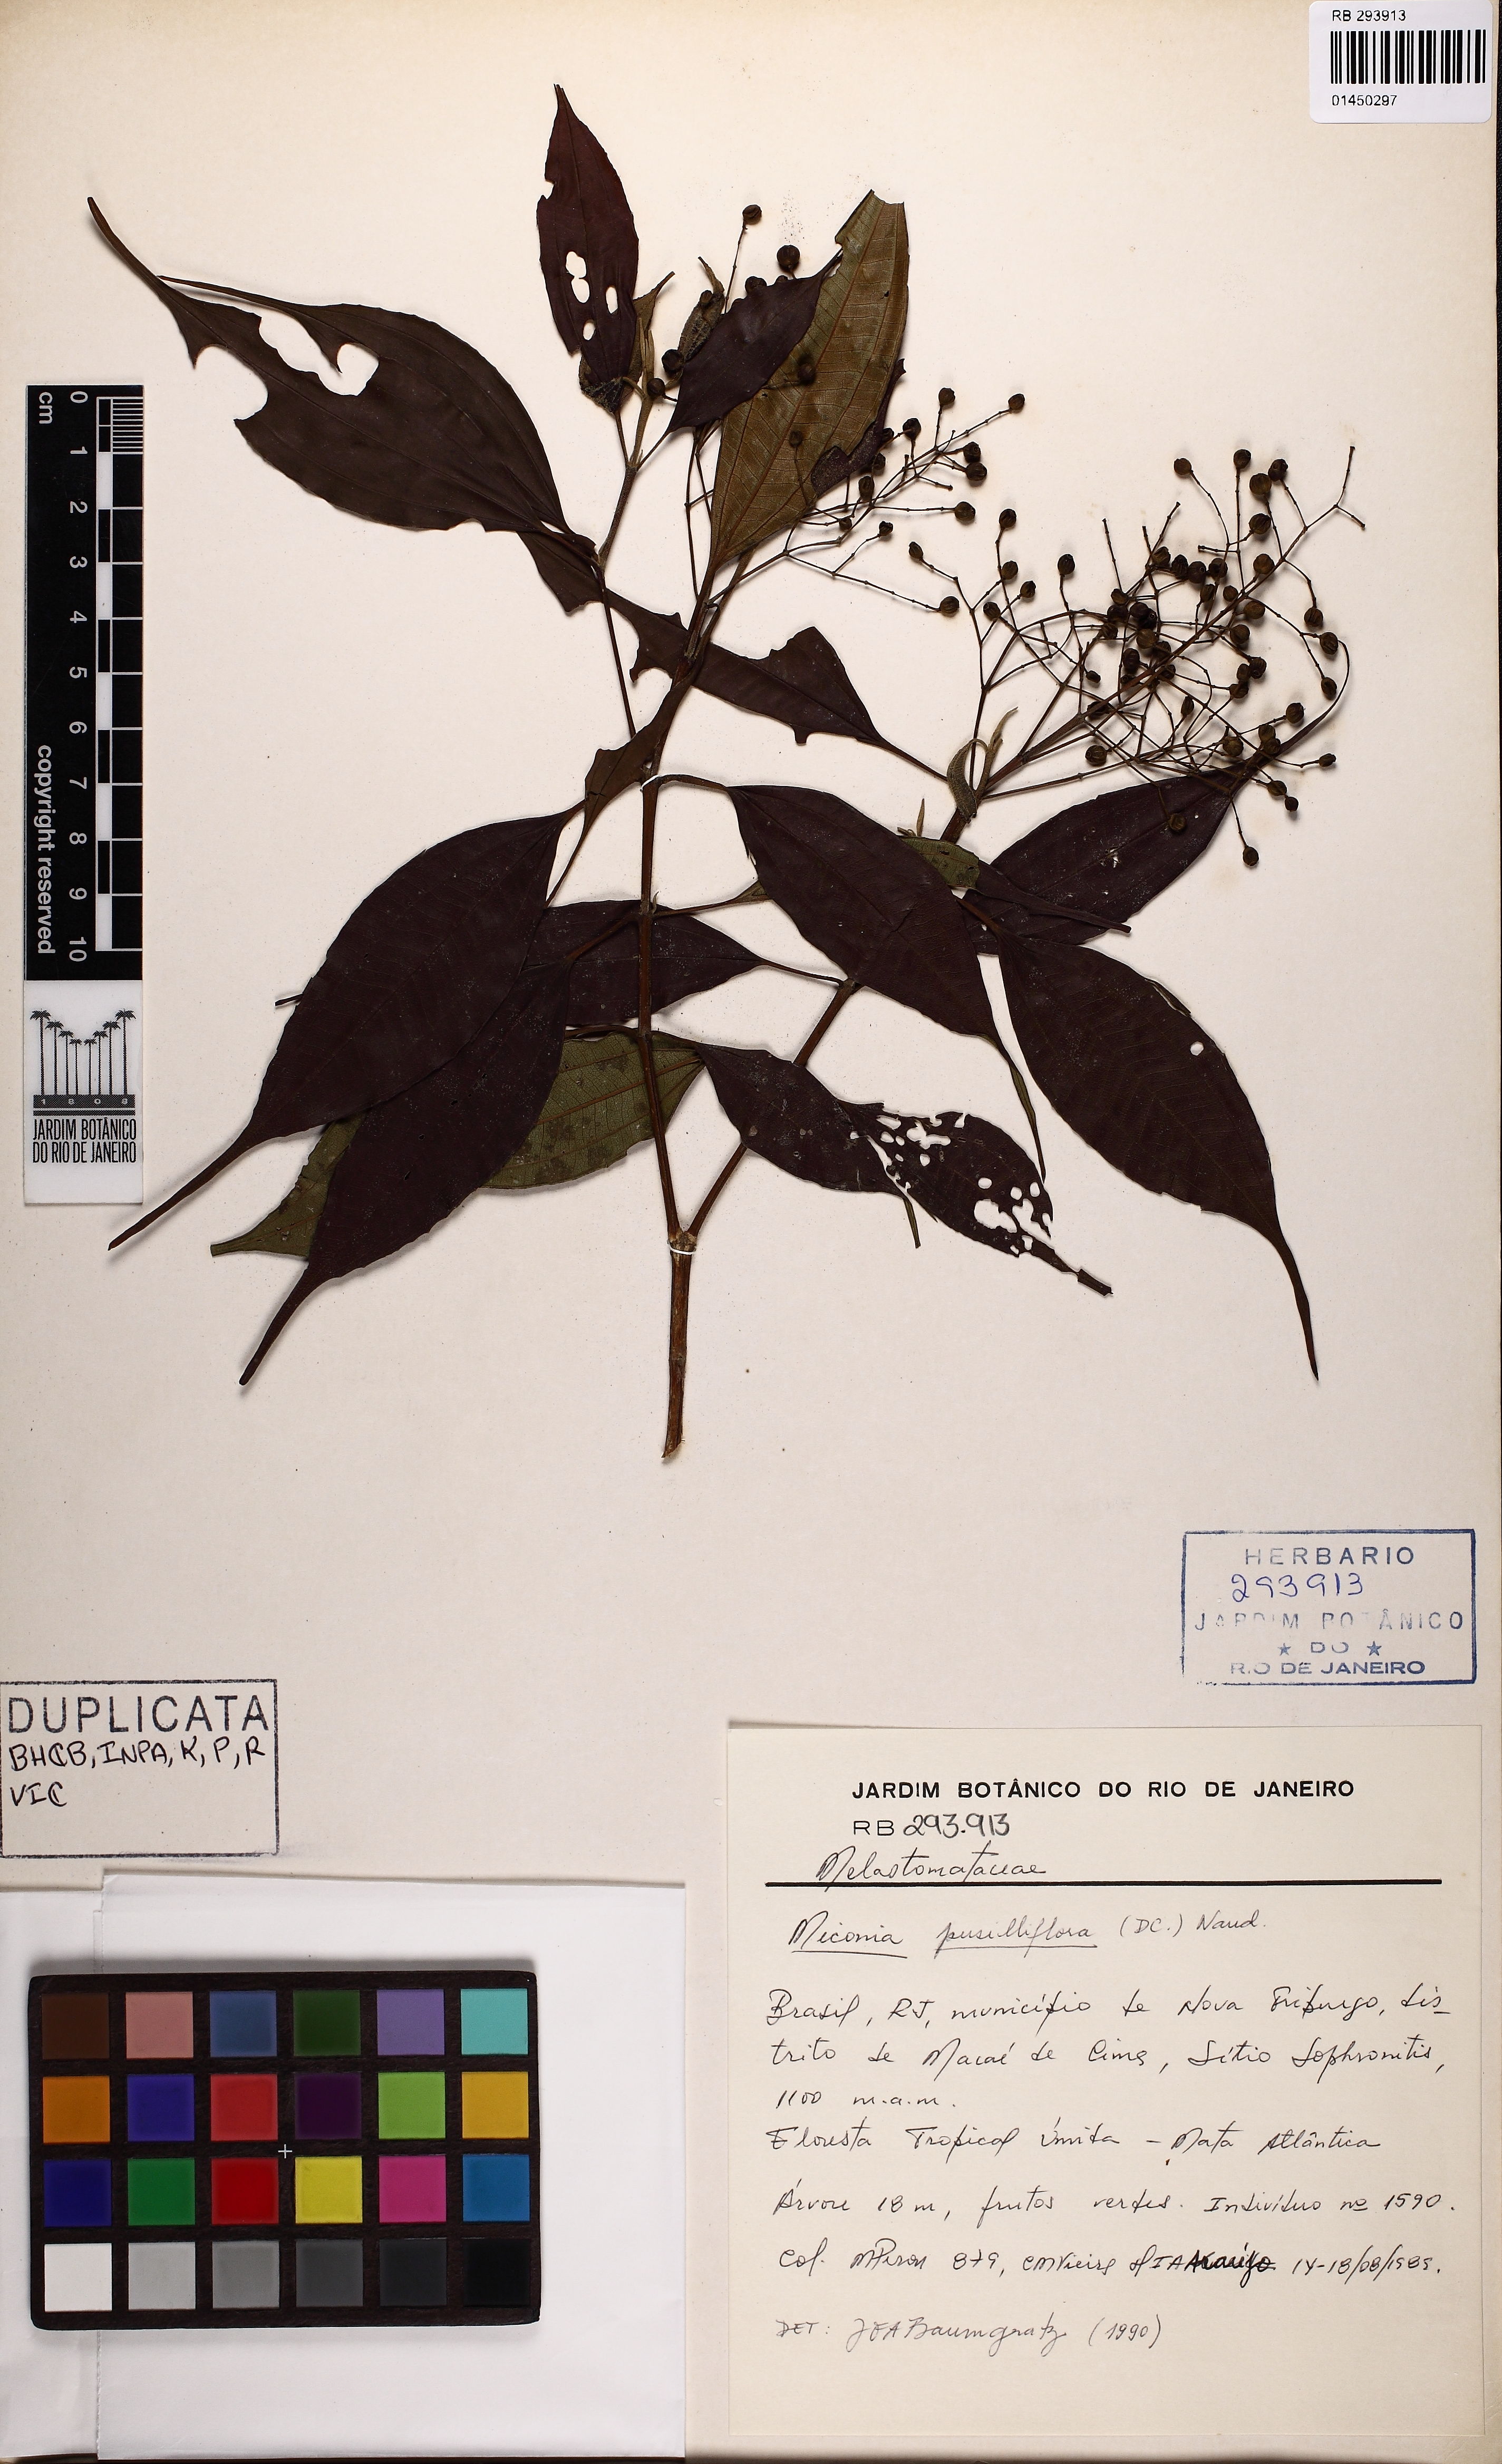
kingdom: Plantae
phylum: Tracheophyta
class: Magnoliopsida
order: Myrtales
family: Melastomataceae
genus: Miconia
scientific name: Miconia paniculata
